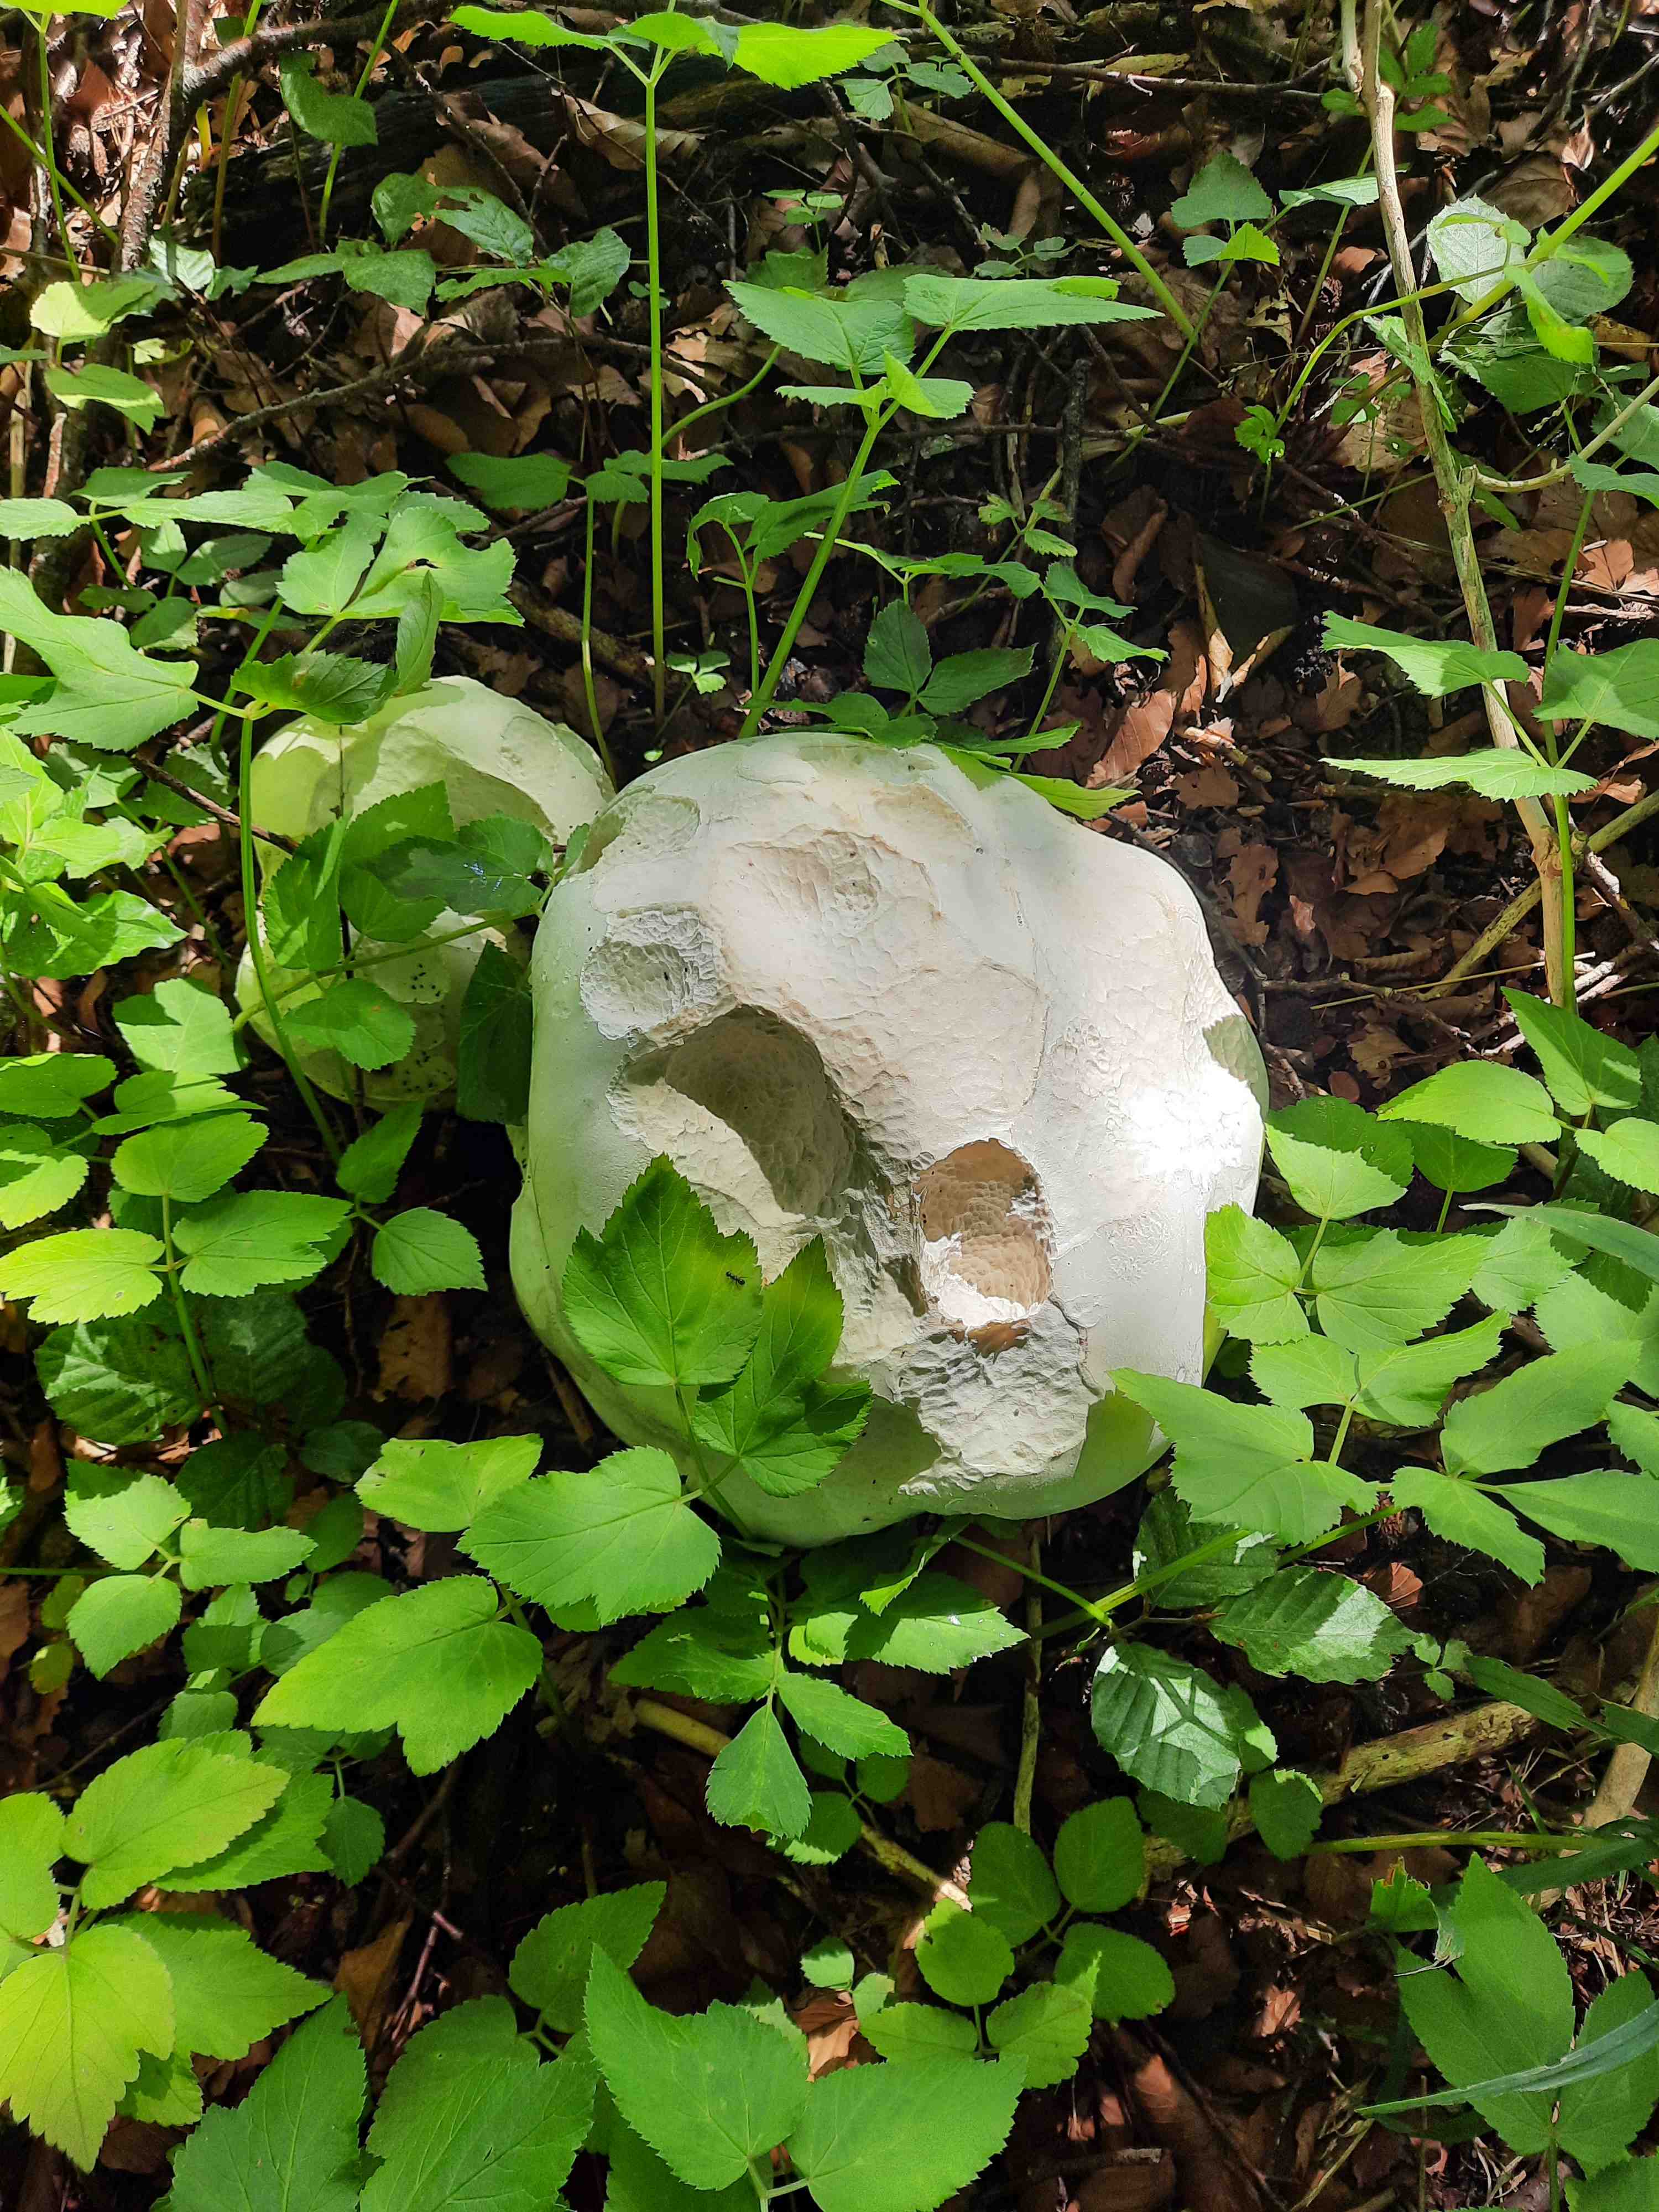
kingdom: Fungi
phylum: Basidiomycota
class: Agaricomycetes
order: Agaricales
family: Lycoperdaceae
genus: Calvatia
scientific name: Calvatia gigantea
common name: kæmpestøvbold
